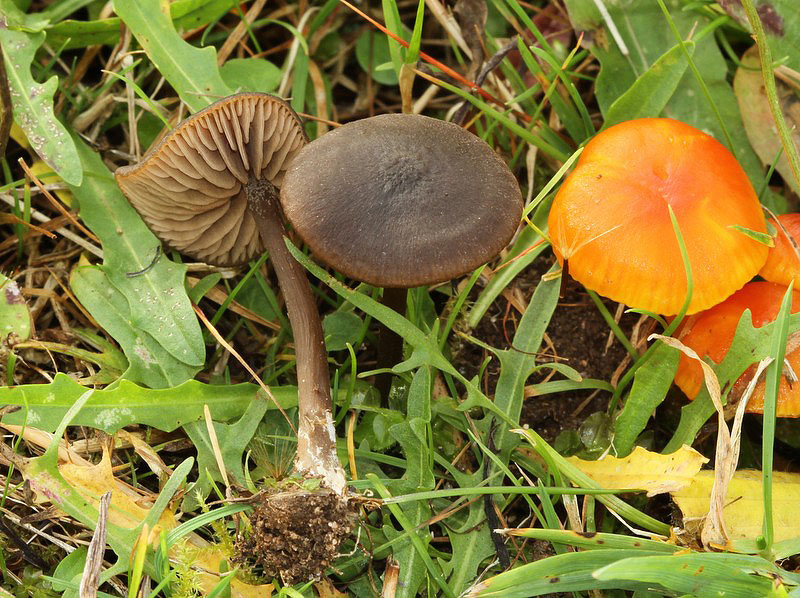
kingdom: Fungi
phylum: Basidiomycota
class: Agaricomycetes
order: Agaricales
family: Entolomataceae
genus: Entoloma
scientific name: Entoloma clandestinum
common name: tykbladet rødblad
